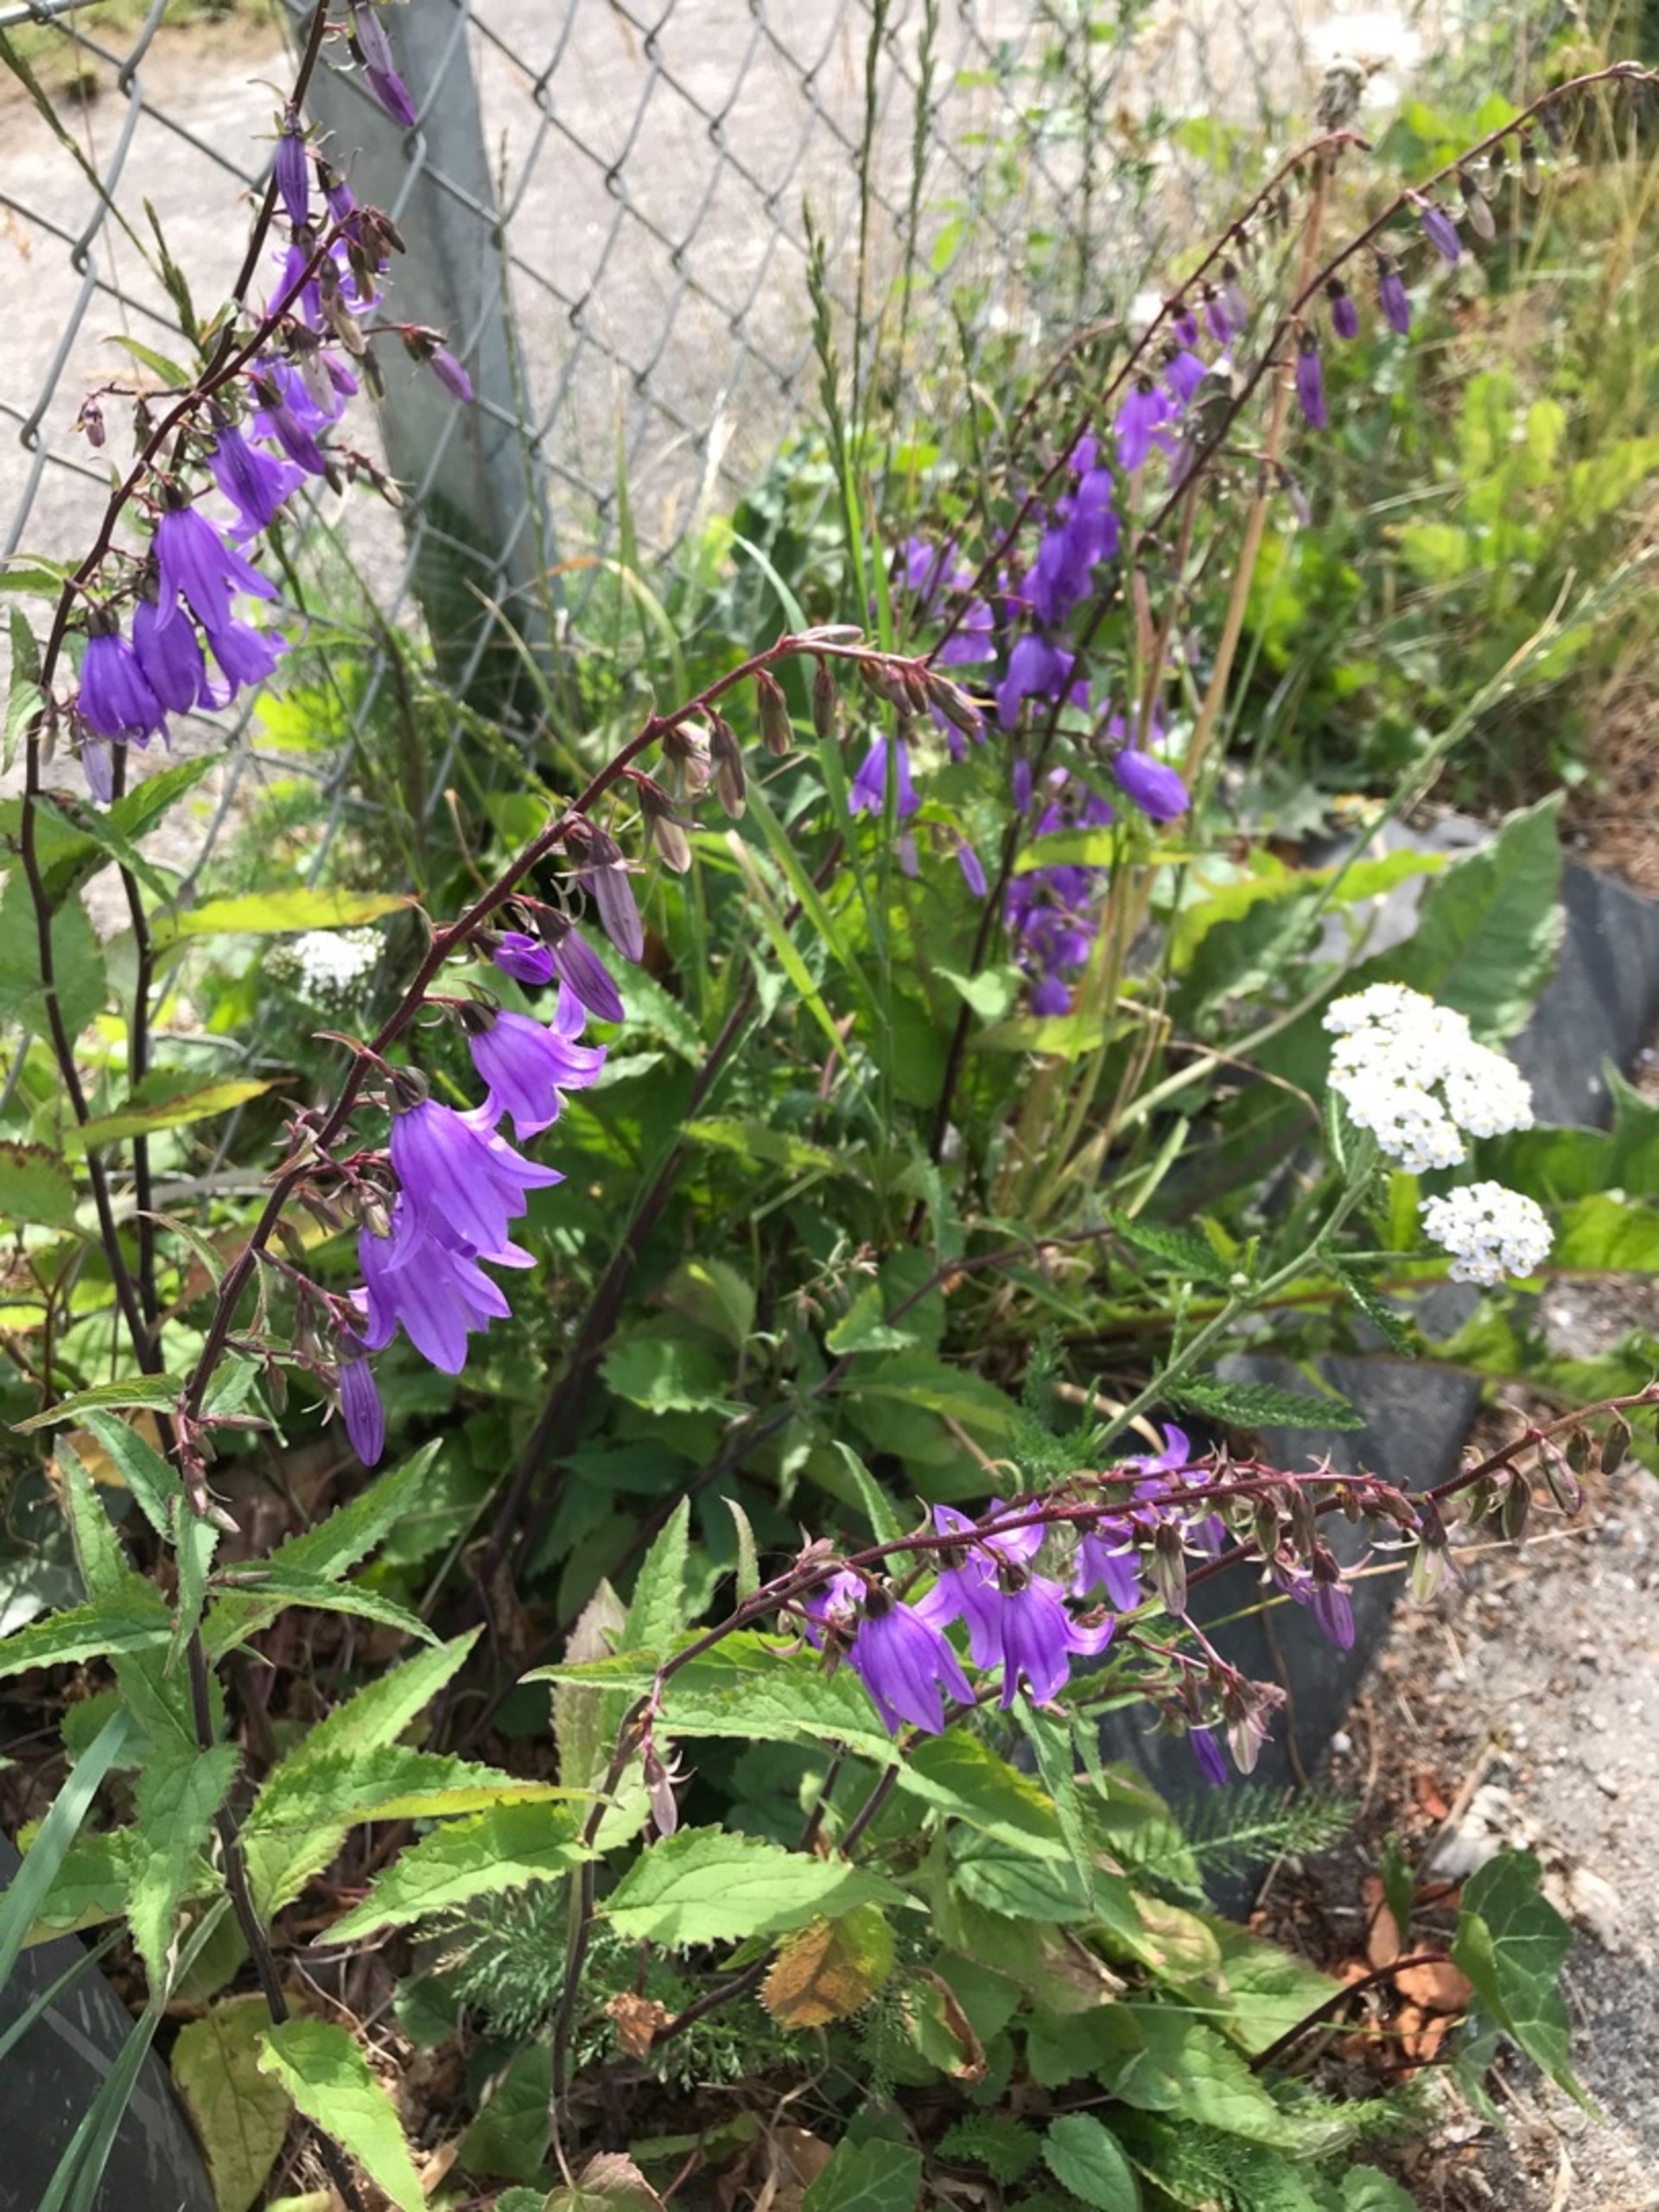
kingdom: Plantae
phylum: Tracheophyta
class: Magnoliopsida
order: Asterales
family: Campanulaceae
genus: Campanula
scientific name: Campanula rapunculoides
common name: Ensidig klokke
